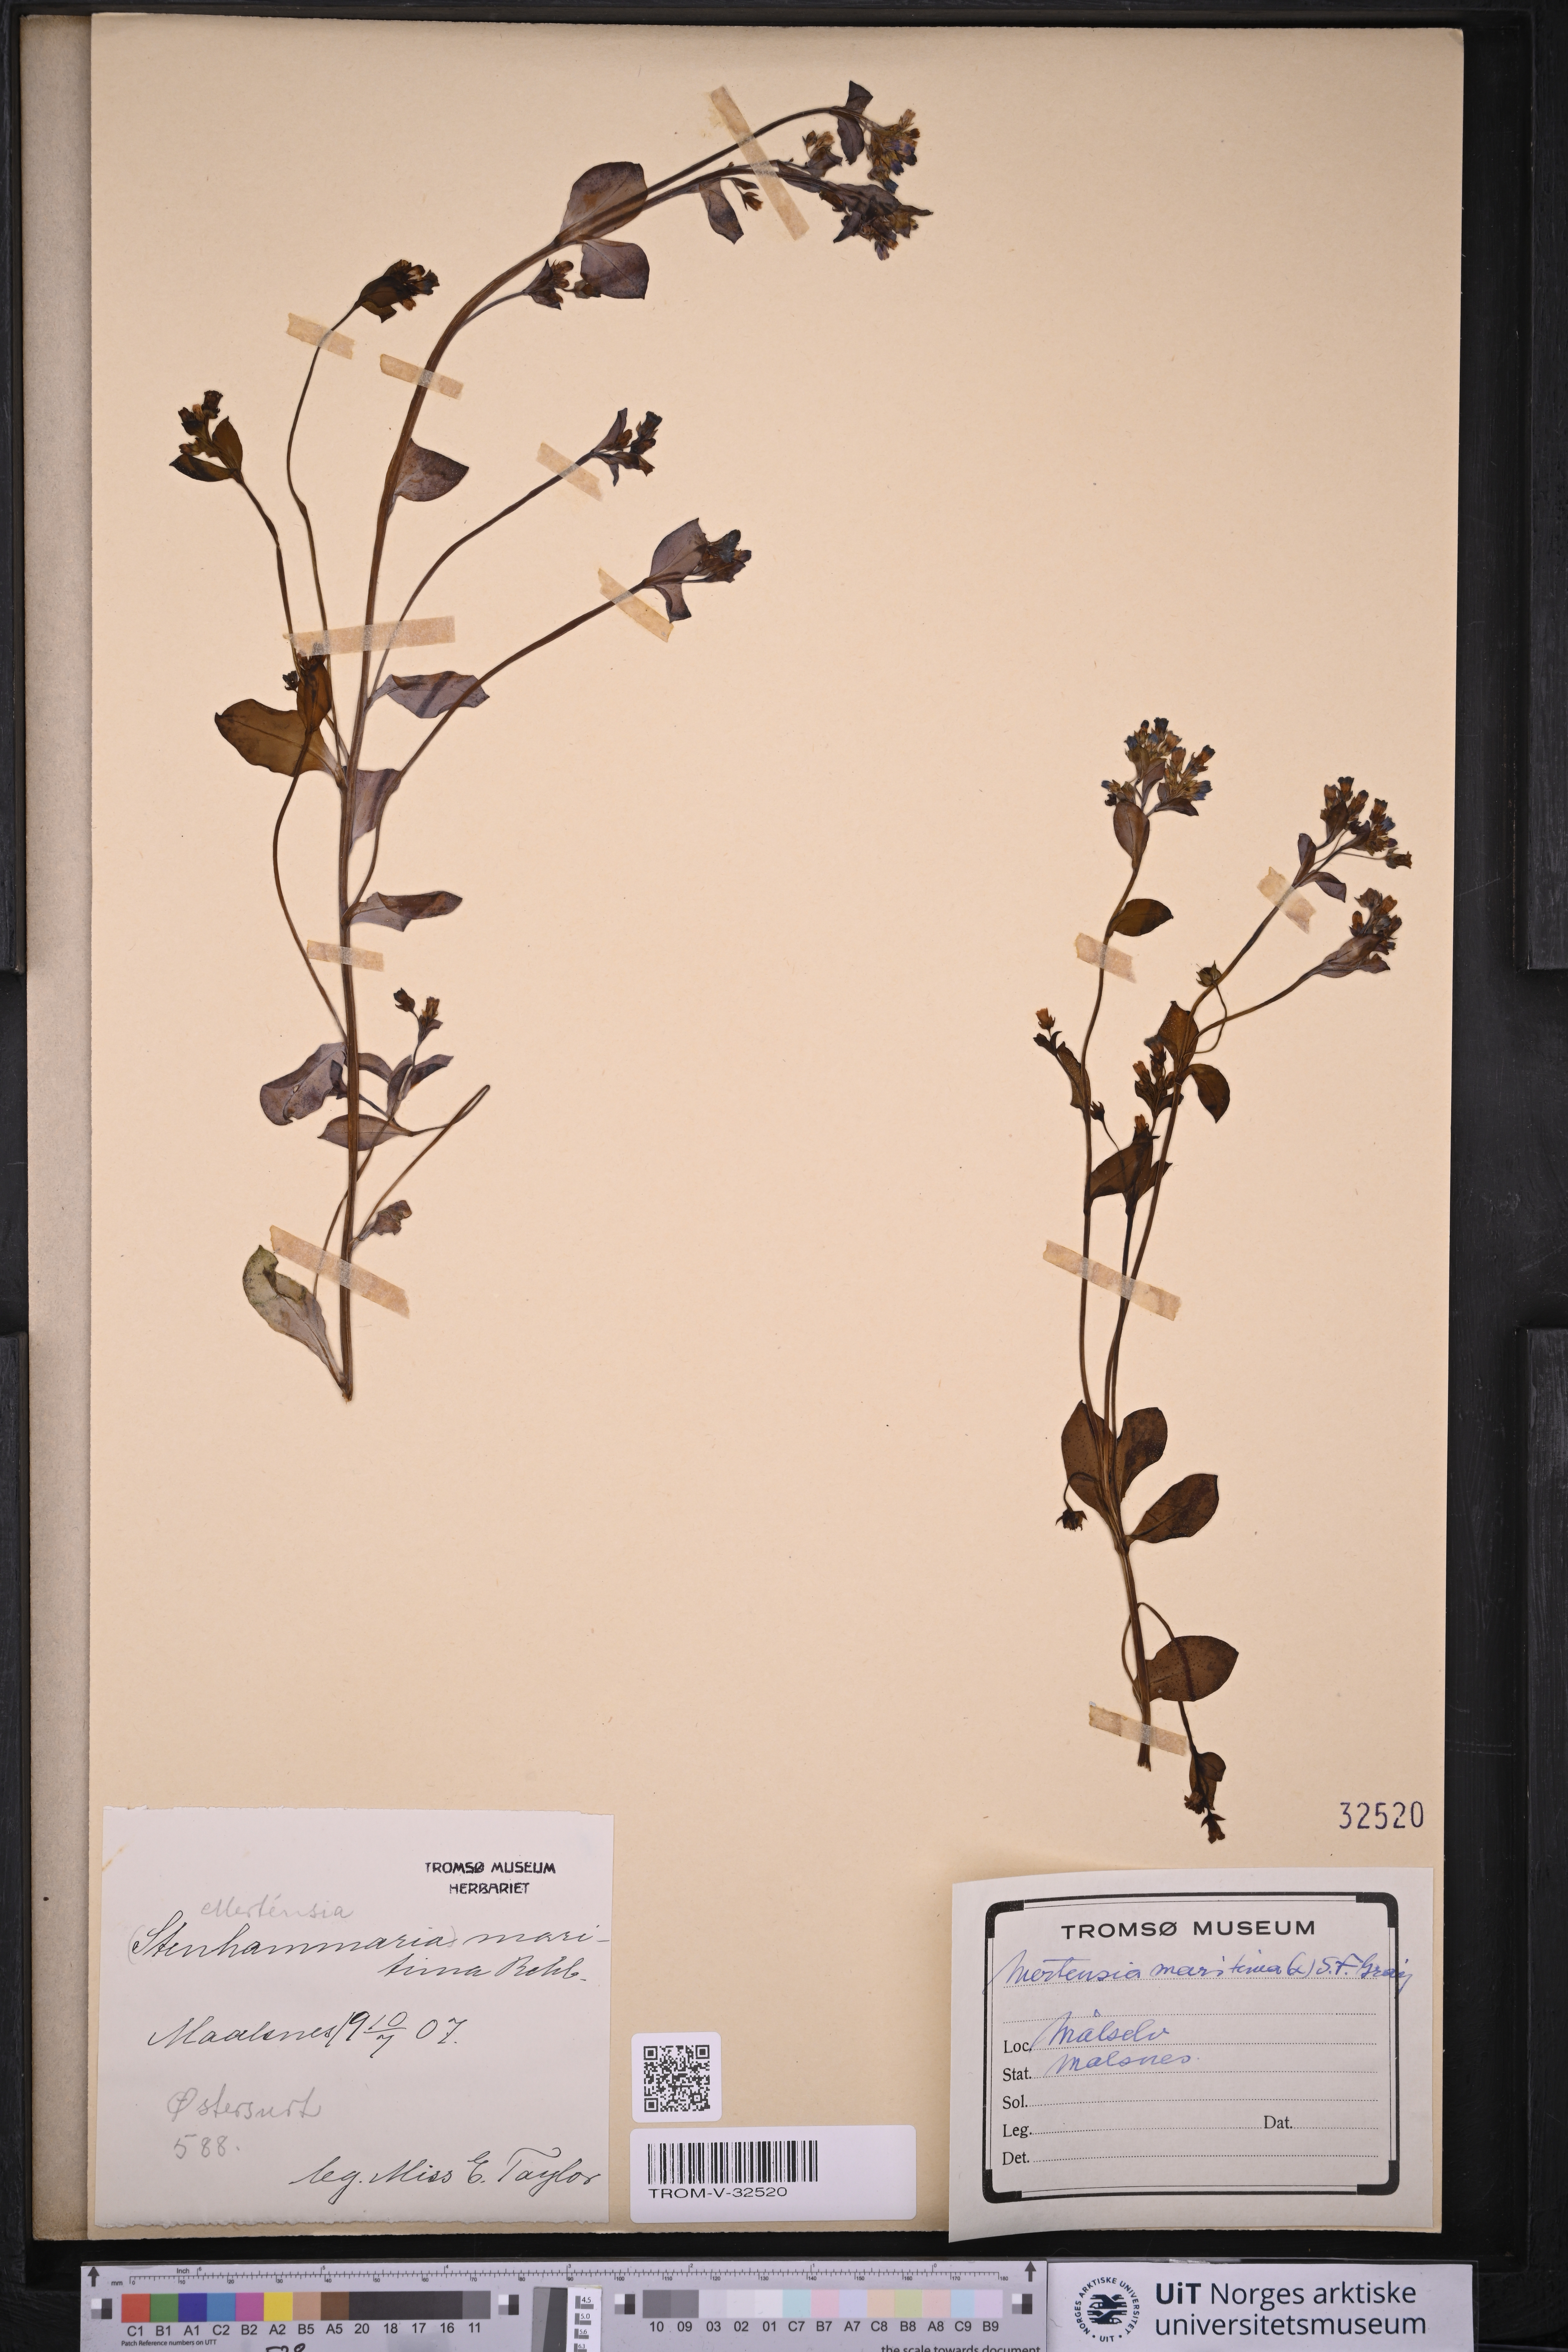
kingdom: Plantae
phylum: Tracheophyta
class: Magnoliopsida
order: Boraginales
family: Boraginaceae
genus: Mertensia
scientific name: Mertensia maritima
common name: Oysterplant
